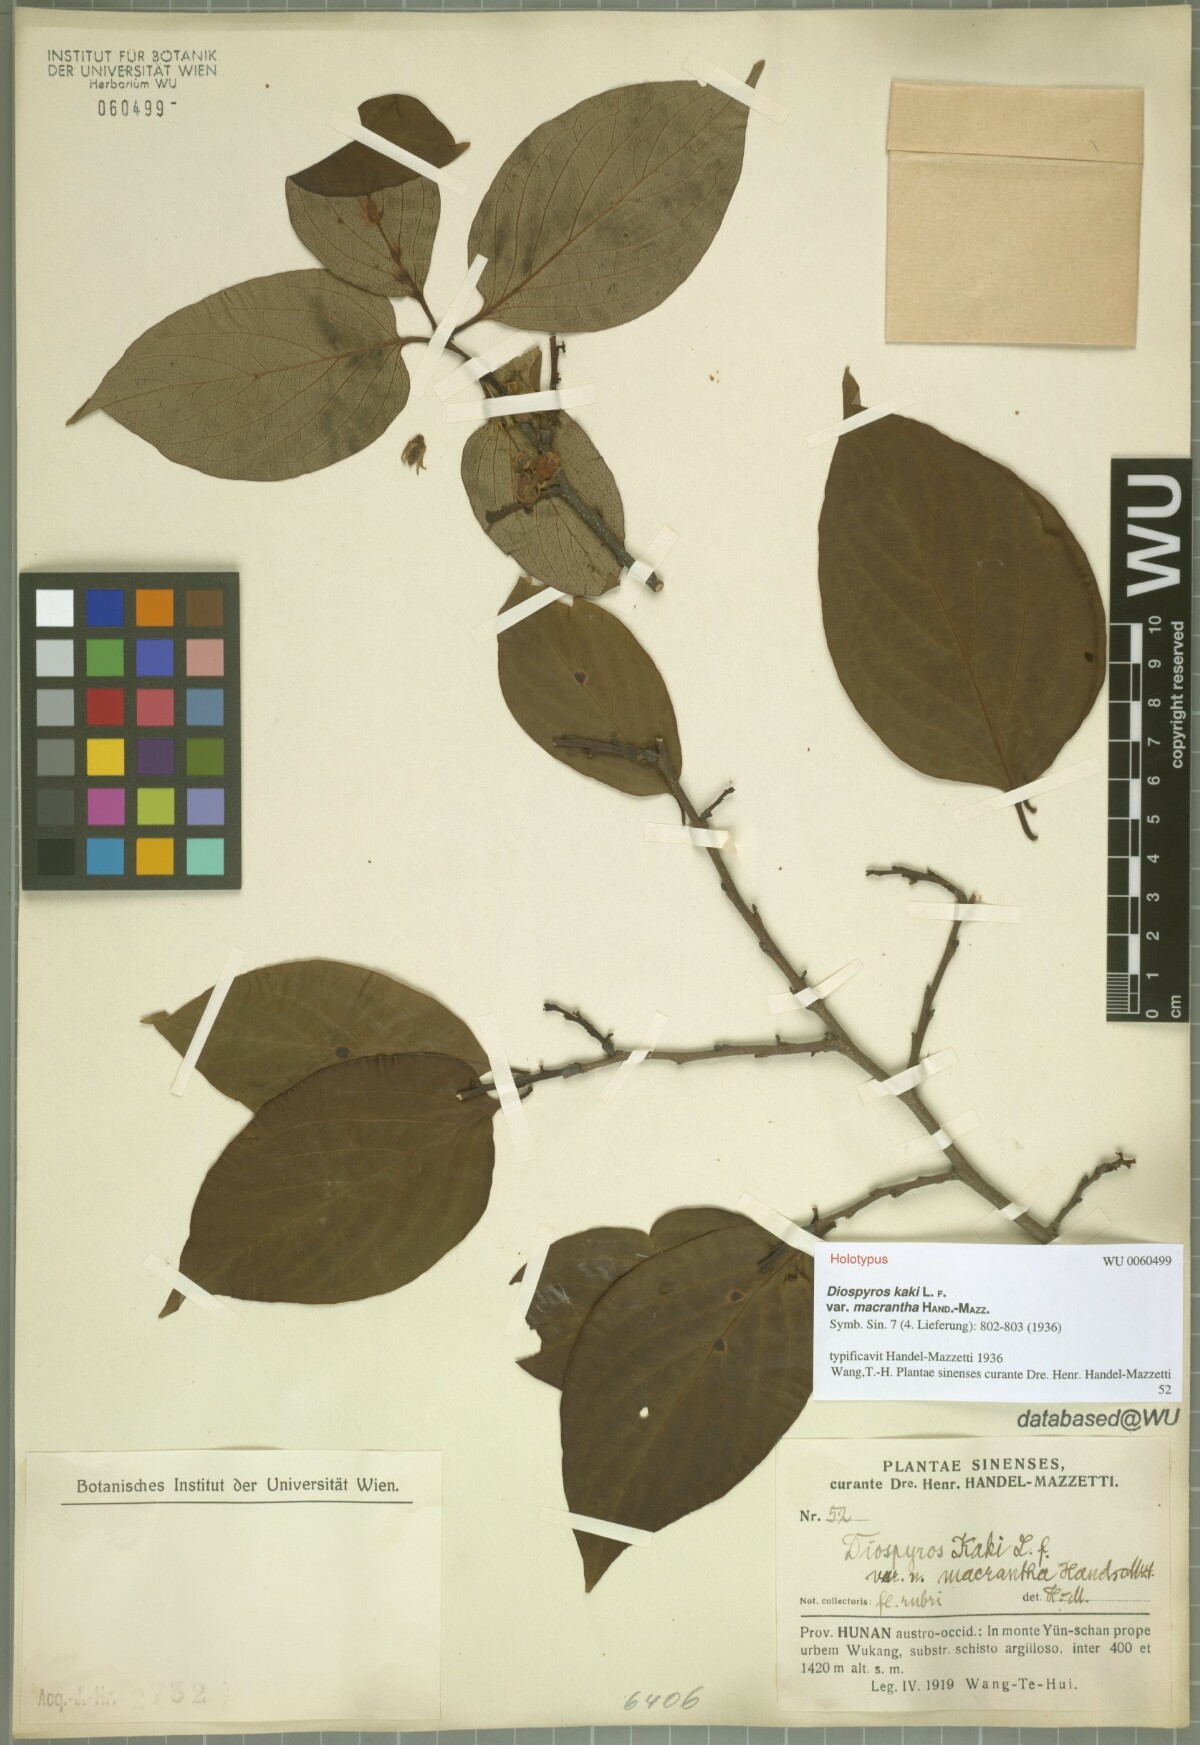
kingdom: Plantae
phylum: Tracheophyta
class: Magnoliopsida
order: Ericales
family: Ebenaceae
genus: Diospyros
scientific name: Diospyros kaki
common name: Persimmon
